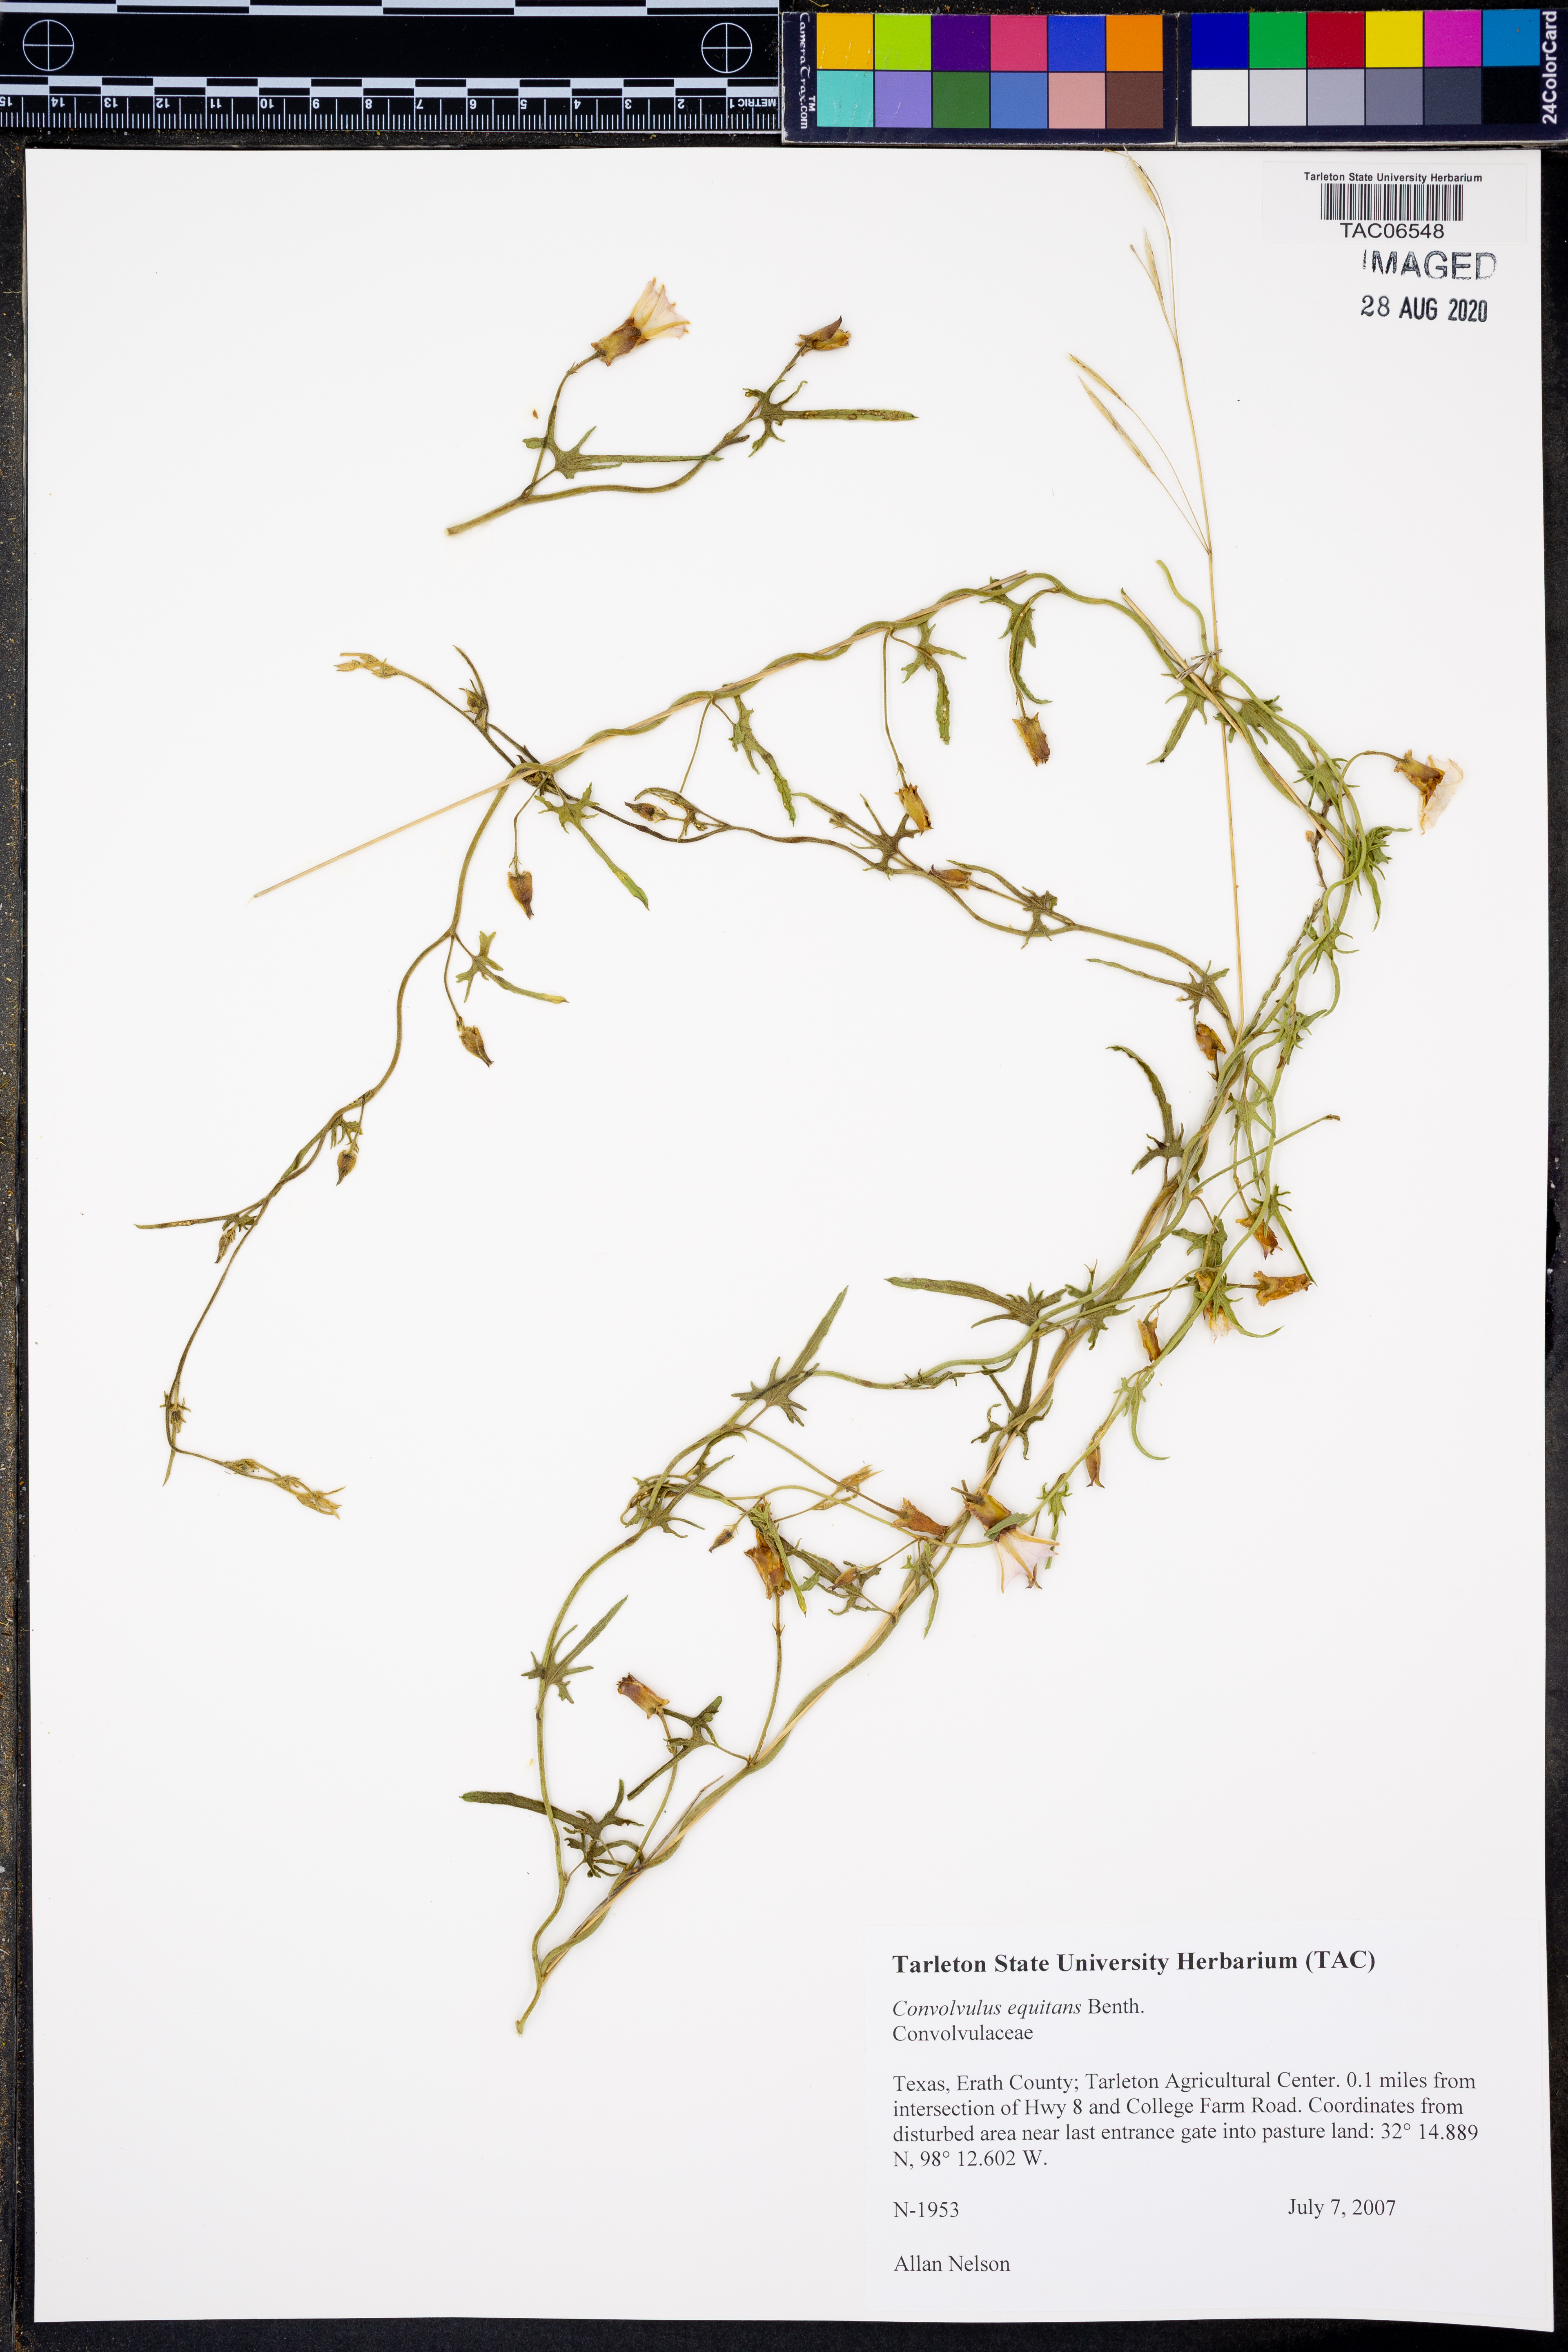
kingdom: Plantae
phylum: Tracheophyta
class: Magnoliopsida
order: Solanales
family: Convolvulaceae
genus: Convolvulus
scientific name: Convolvulus equitans
